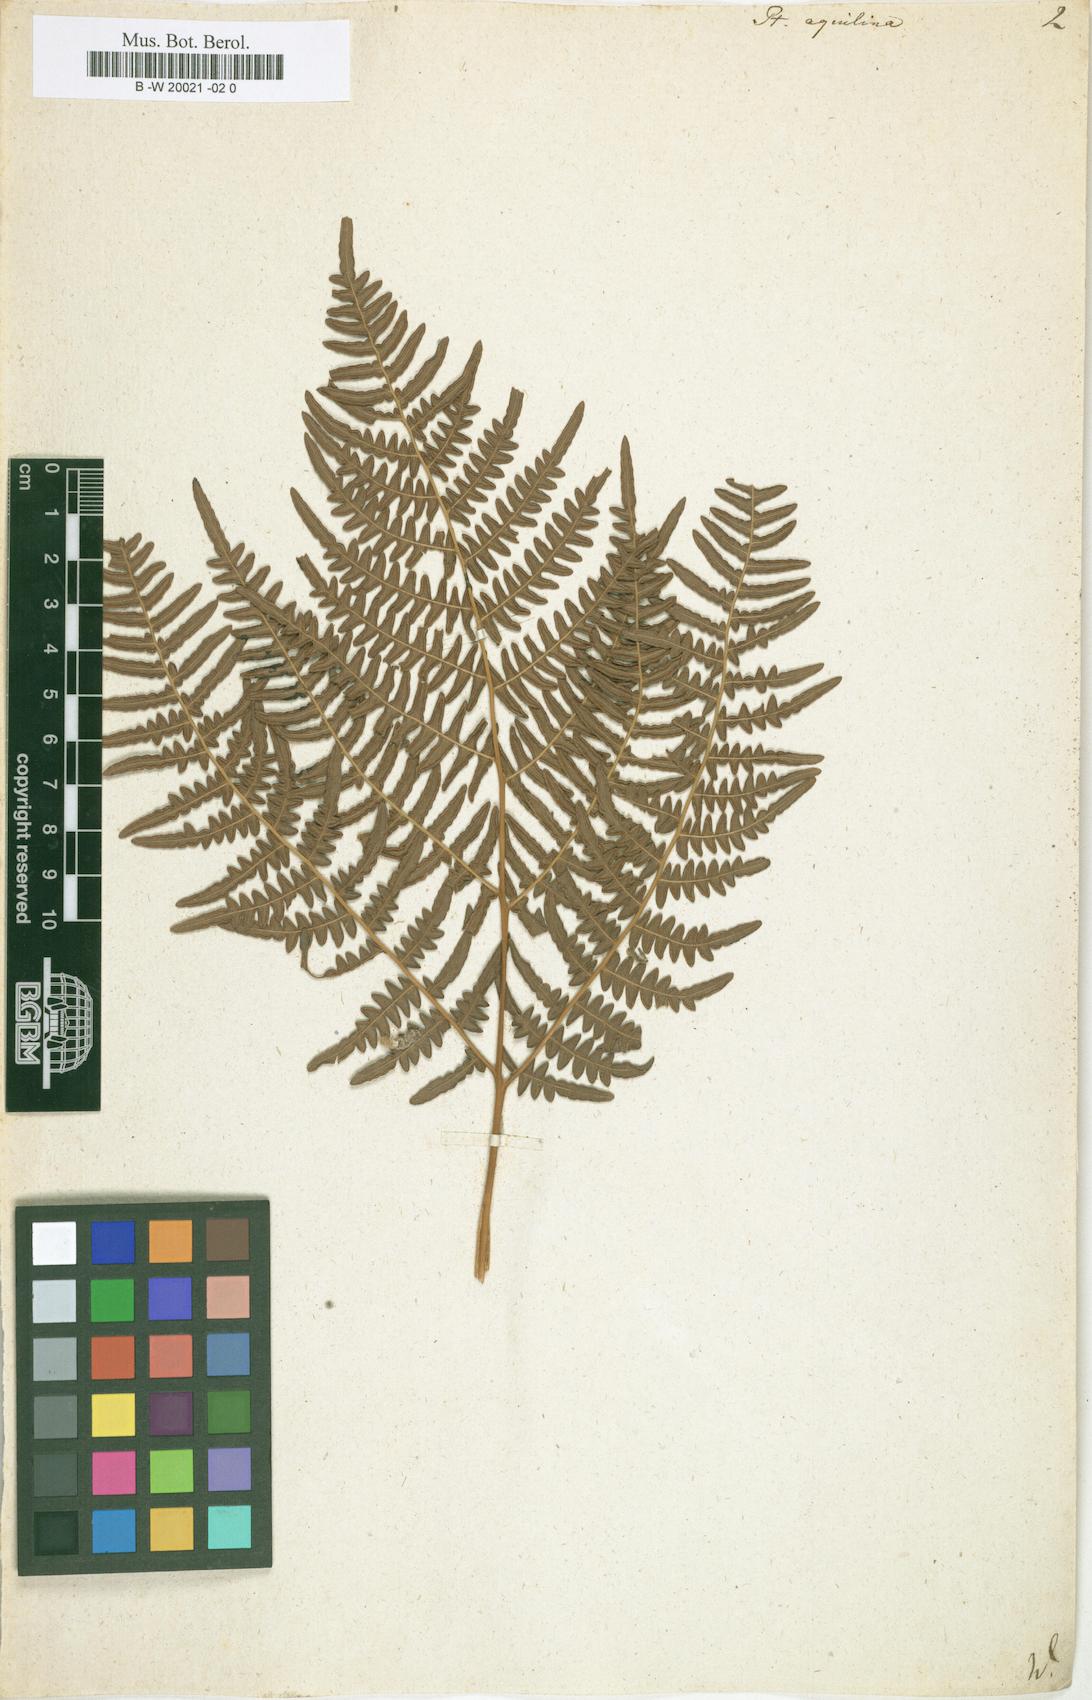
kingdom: Plantae
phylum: Tracheophyta
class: Polypodiopsida
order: Polypodiales
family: Dennstaedtiaceae
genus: Pteridium
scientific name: Pteridium aquilinum
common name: Bracken
